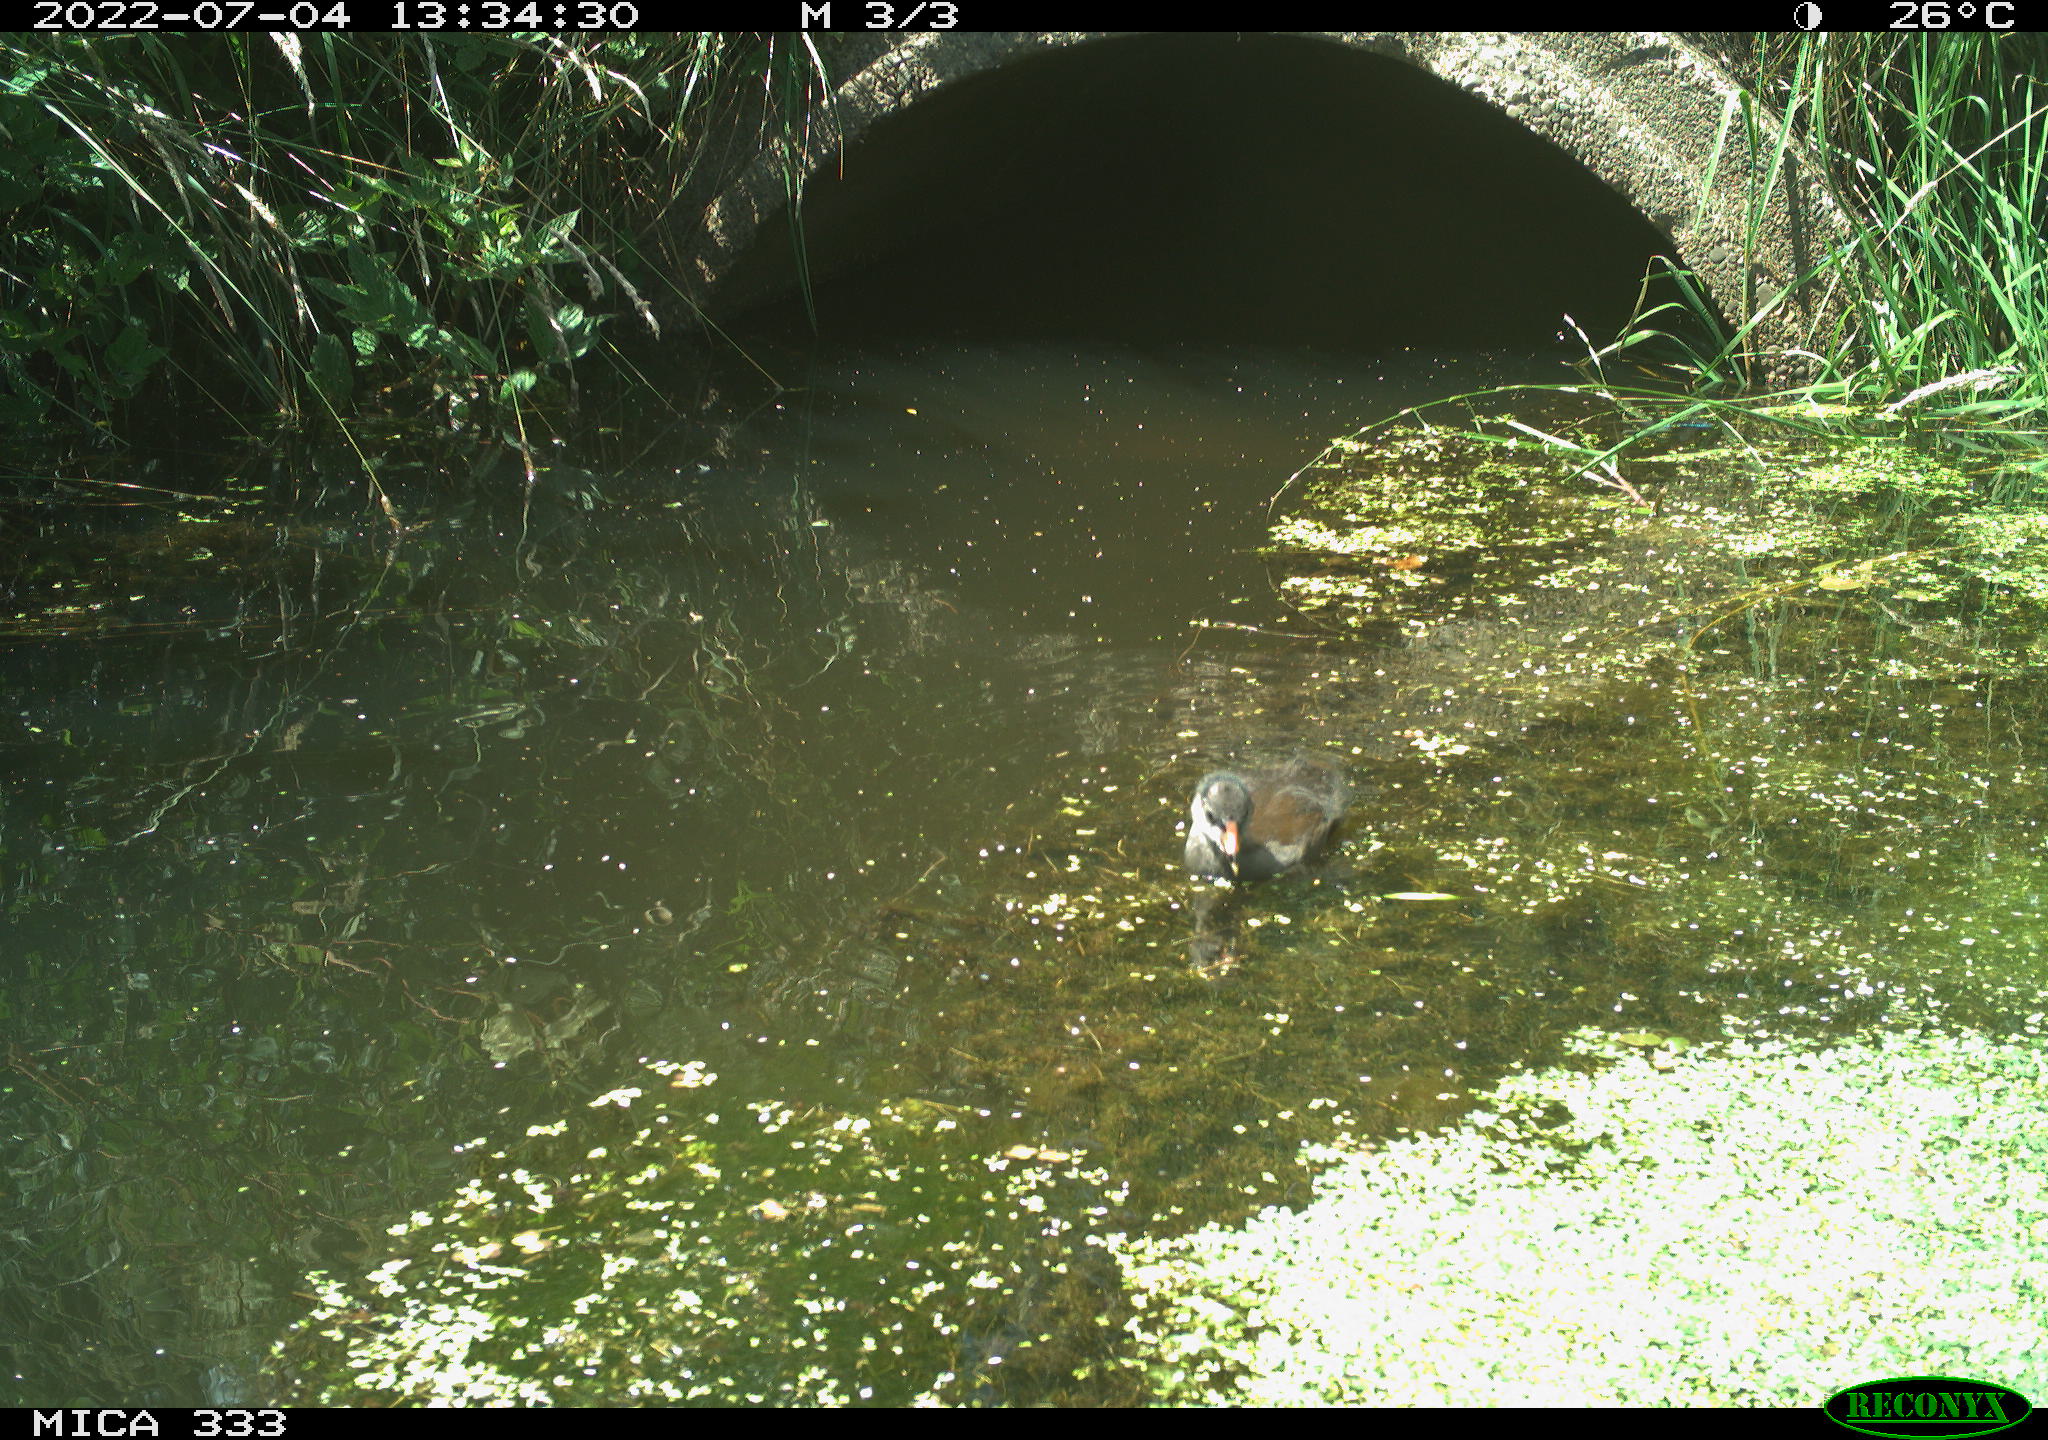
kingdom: Animalia
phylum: Chordata
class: Aves
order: Gruiformes
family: Rallidae
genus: Gallinula
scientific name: Gallinula chloropus
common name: Common moorhen
